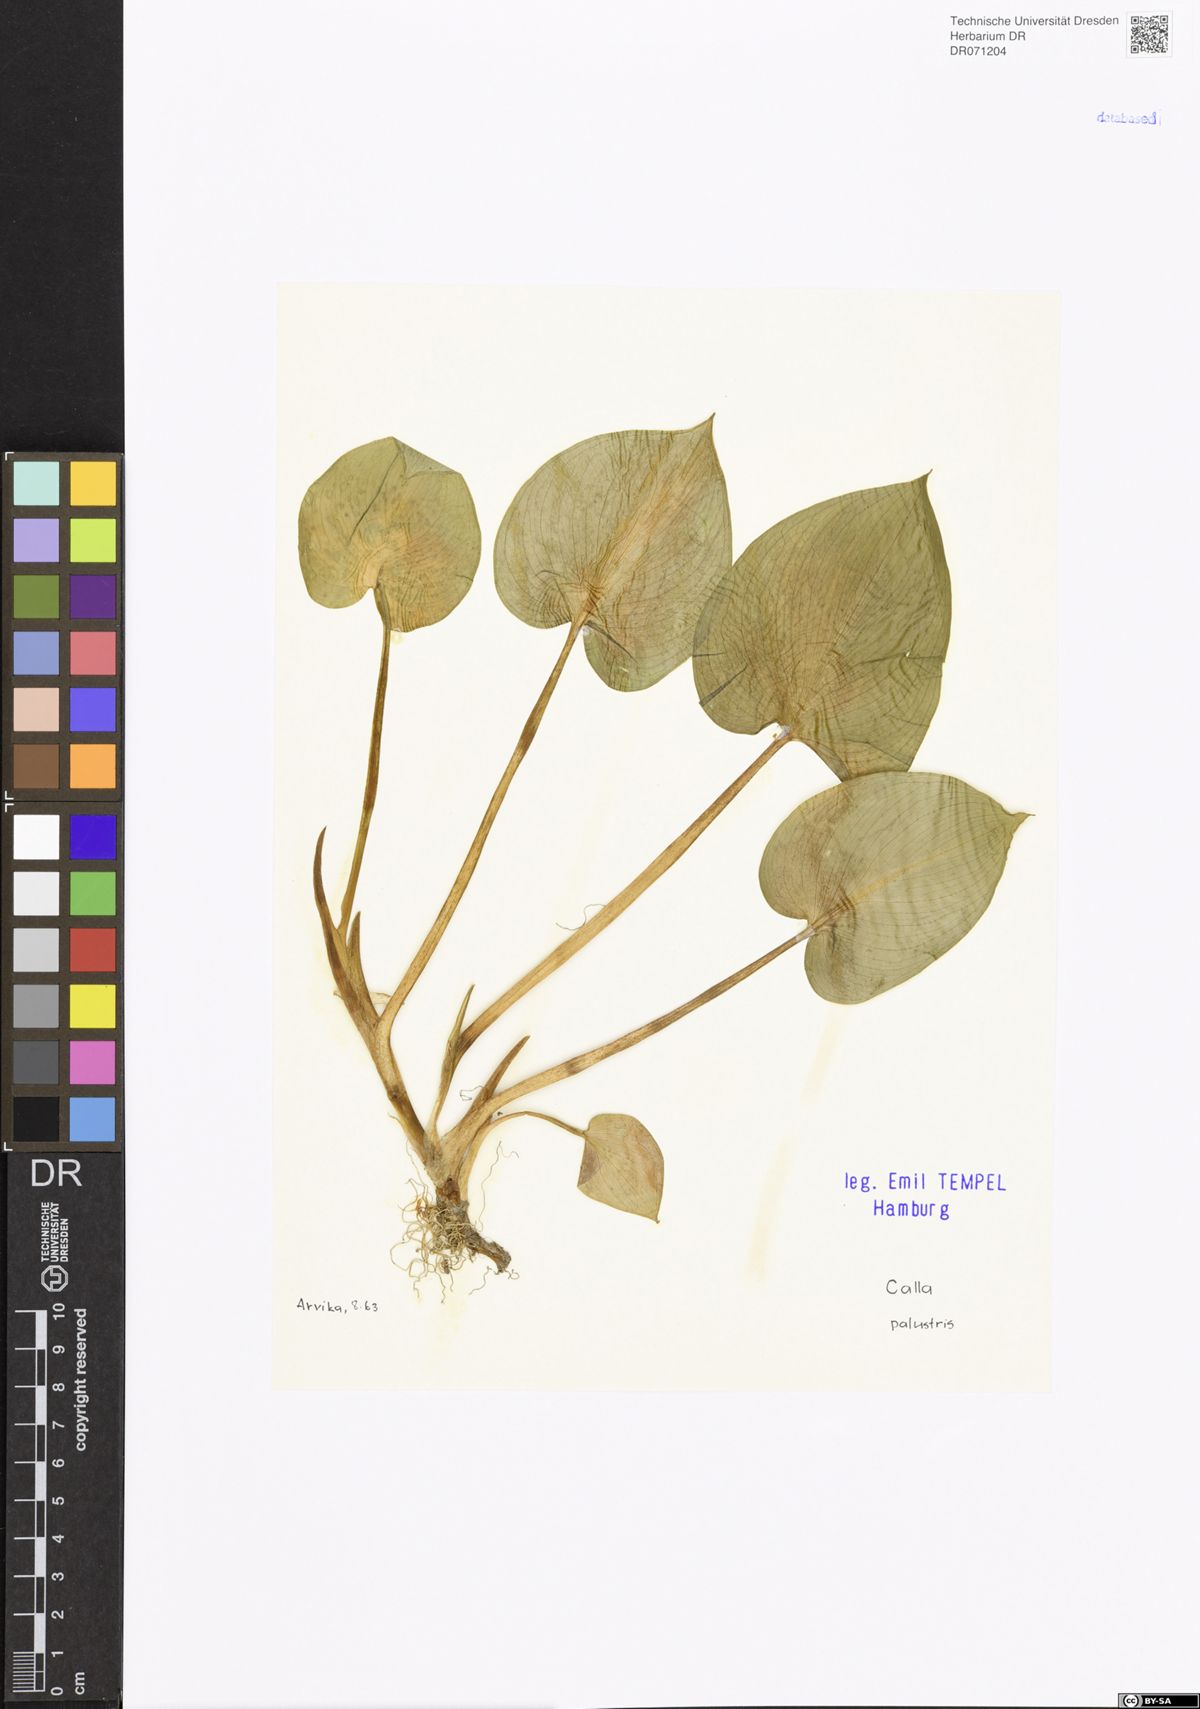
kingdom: Plantae
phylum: Tracheophyta
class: Liliopsida
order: Alismatales
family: Araceae
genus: Calla
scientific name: Calla palustris
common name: Bog arum
